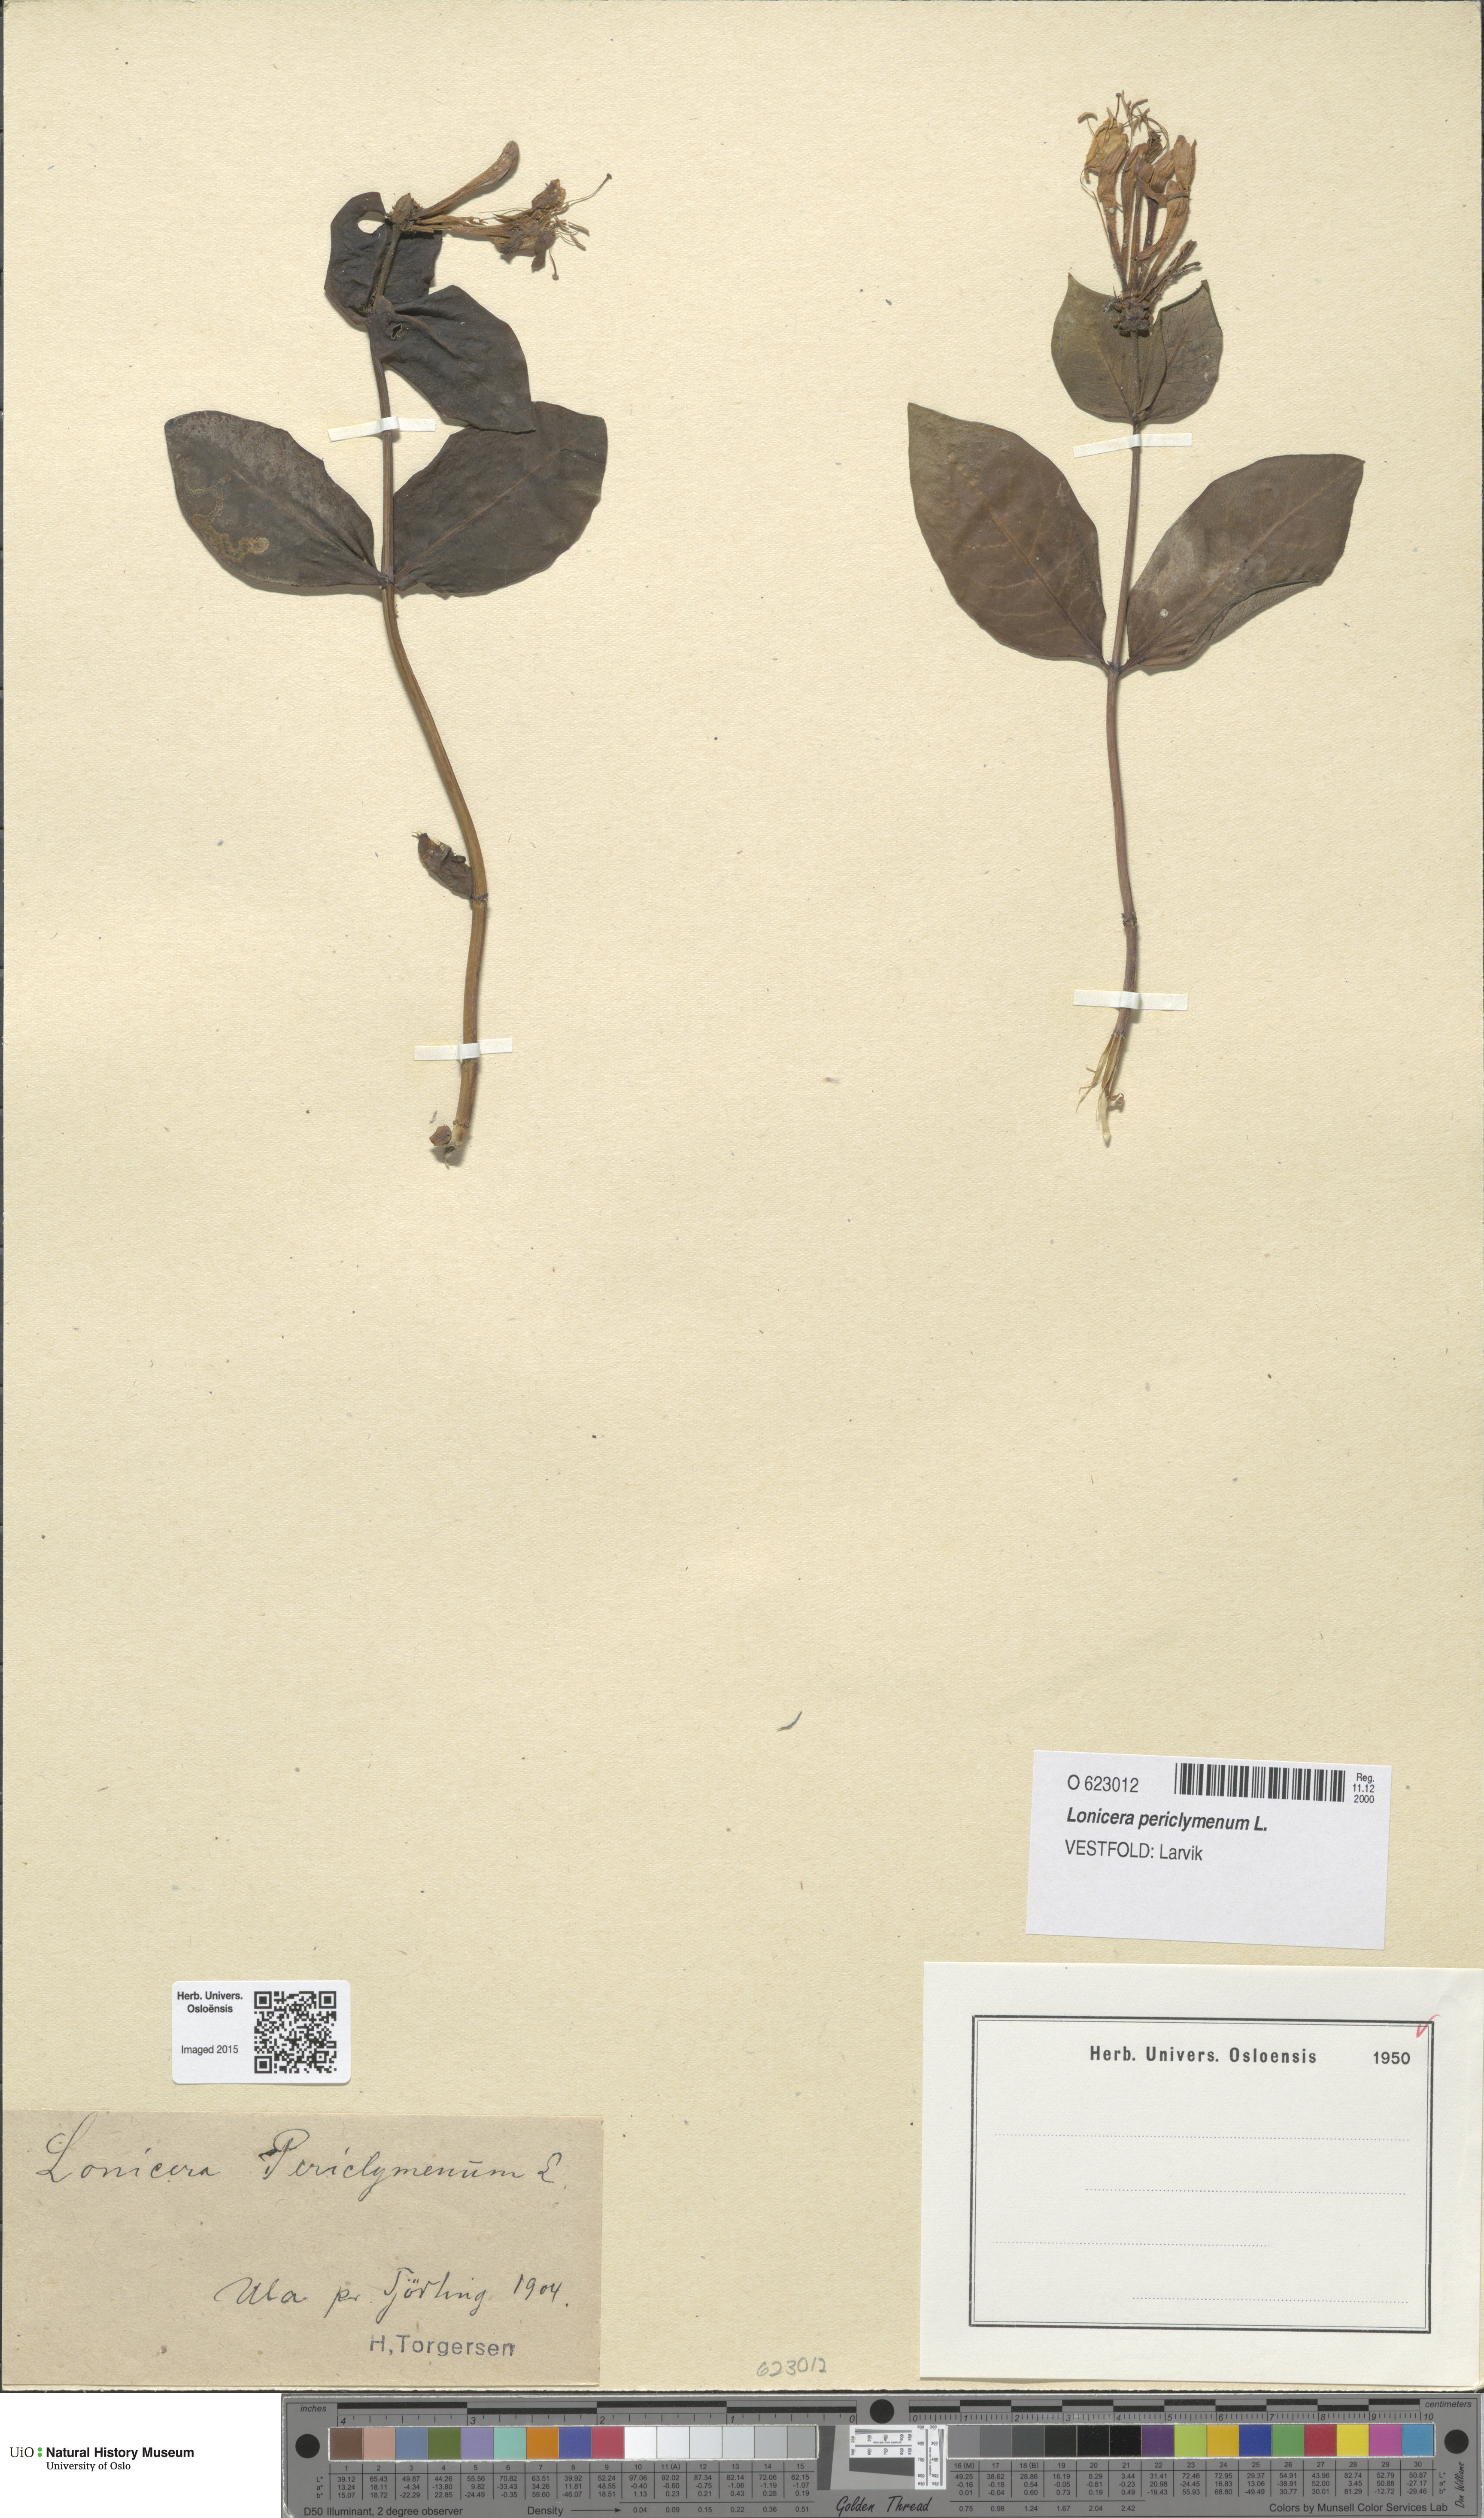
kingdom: Plantae
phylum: Tracheophyta
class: Magnoliopsida
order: Dipsacales
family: Caprifoliaceae
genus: Lonicera
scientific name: Lonicera periclymenum
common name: European honeysuckle
